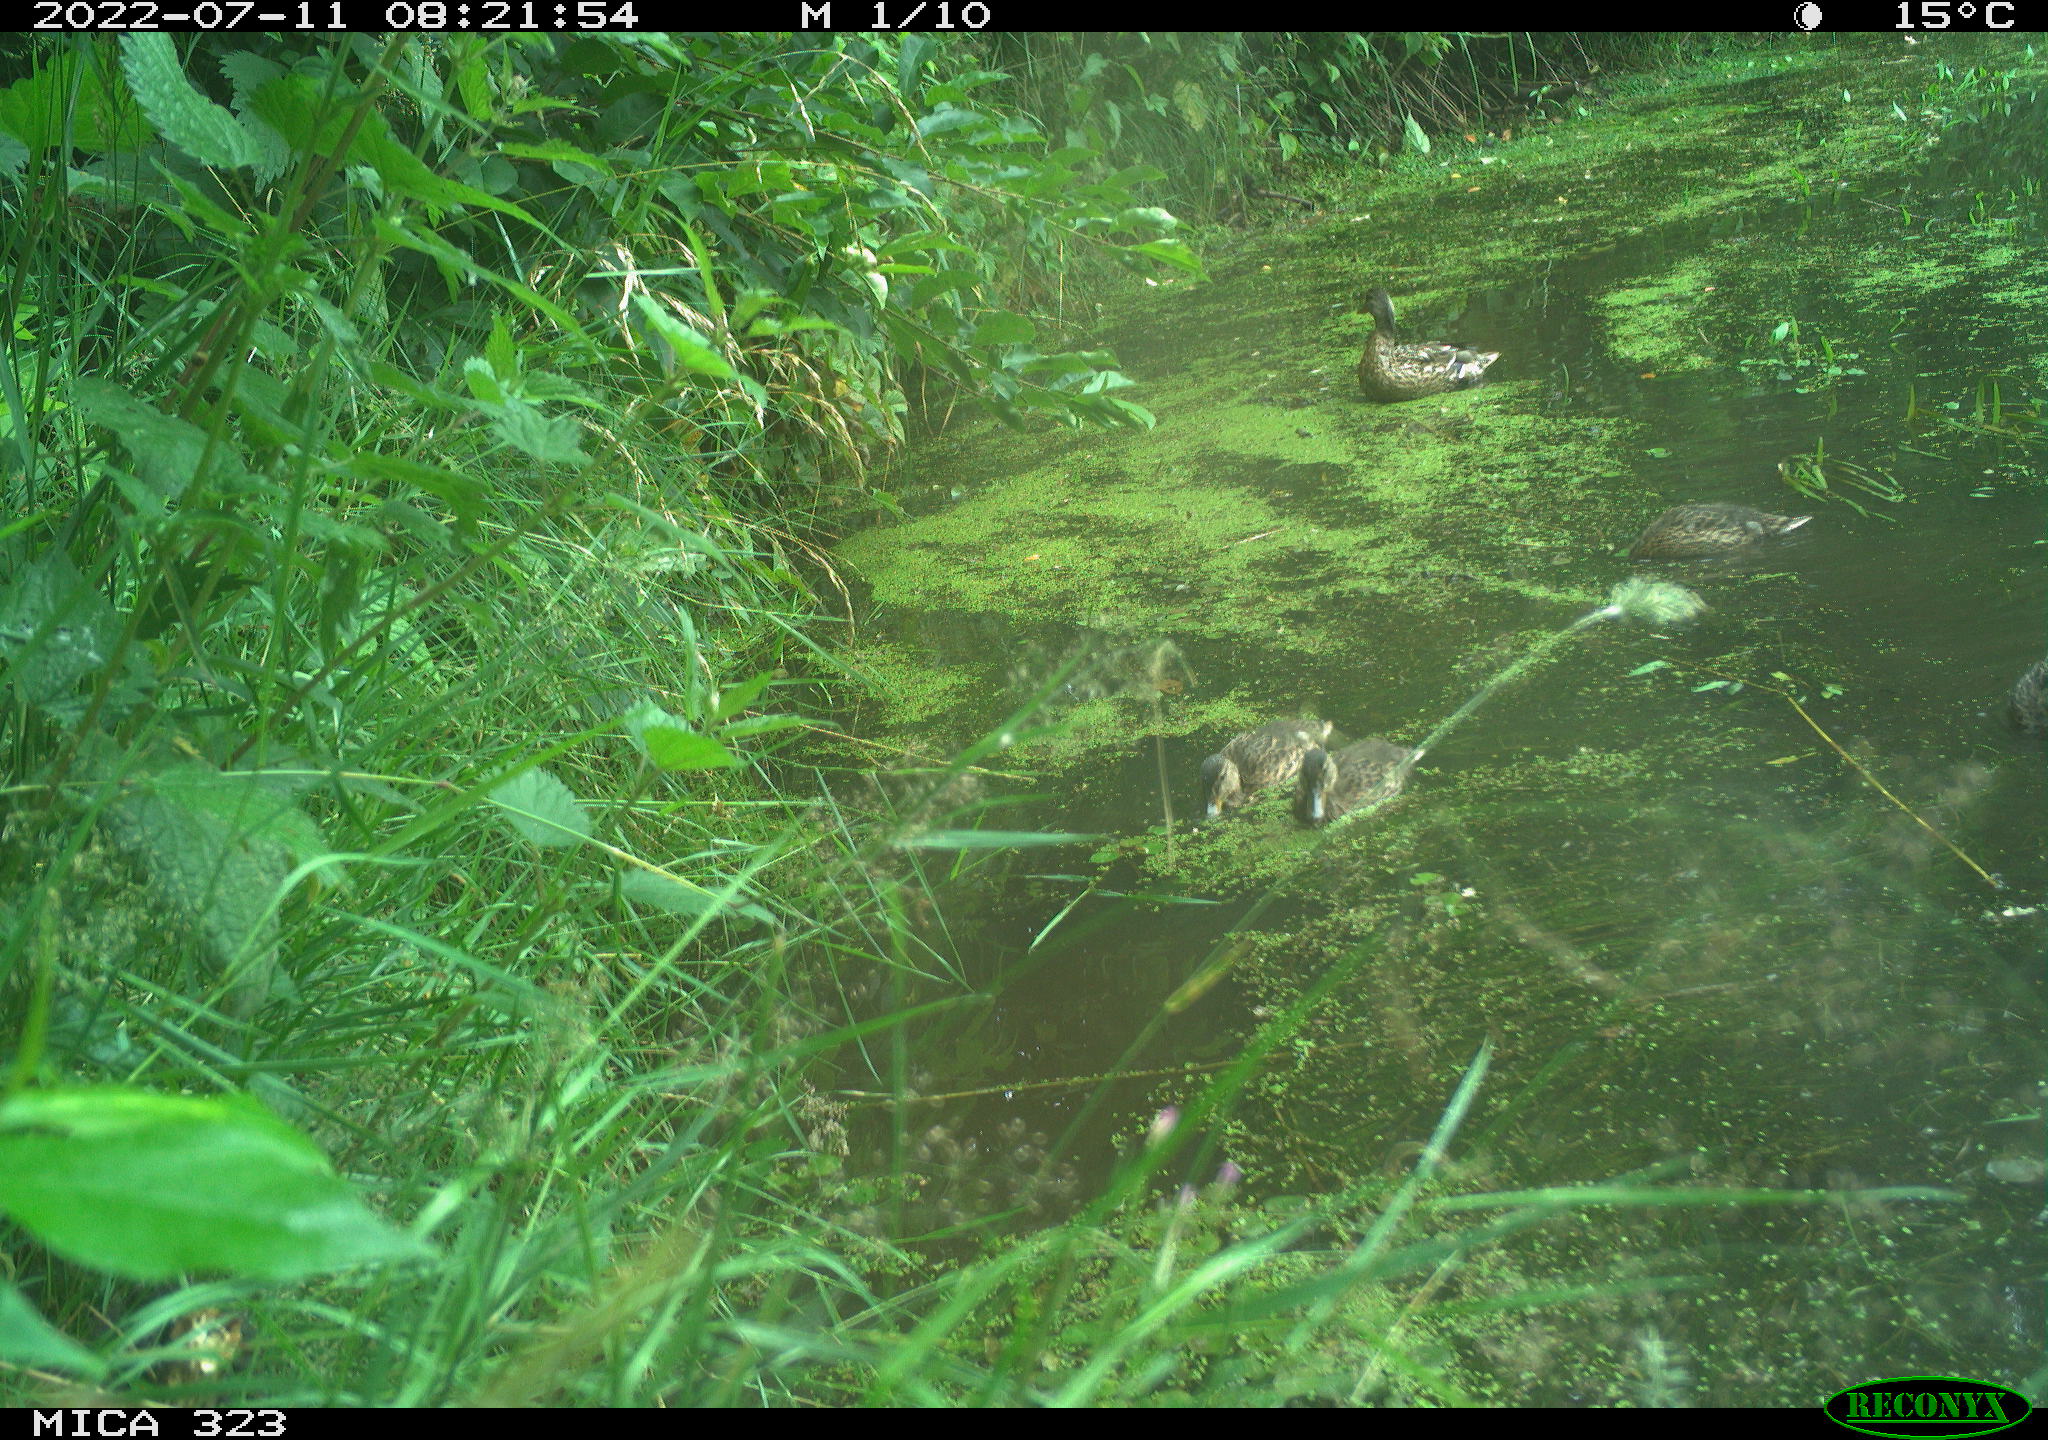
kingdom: Animalia
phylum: Chordata
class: Aves
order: Anseriformes
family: Anatidae
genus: Anas
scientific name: Anas platyrhynchos
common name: Mallard
